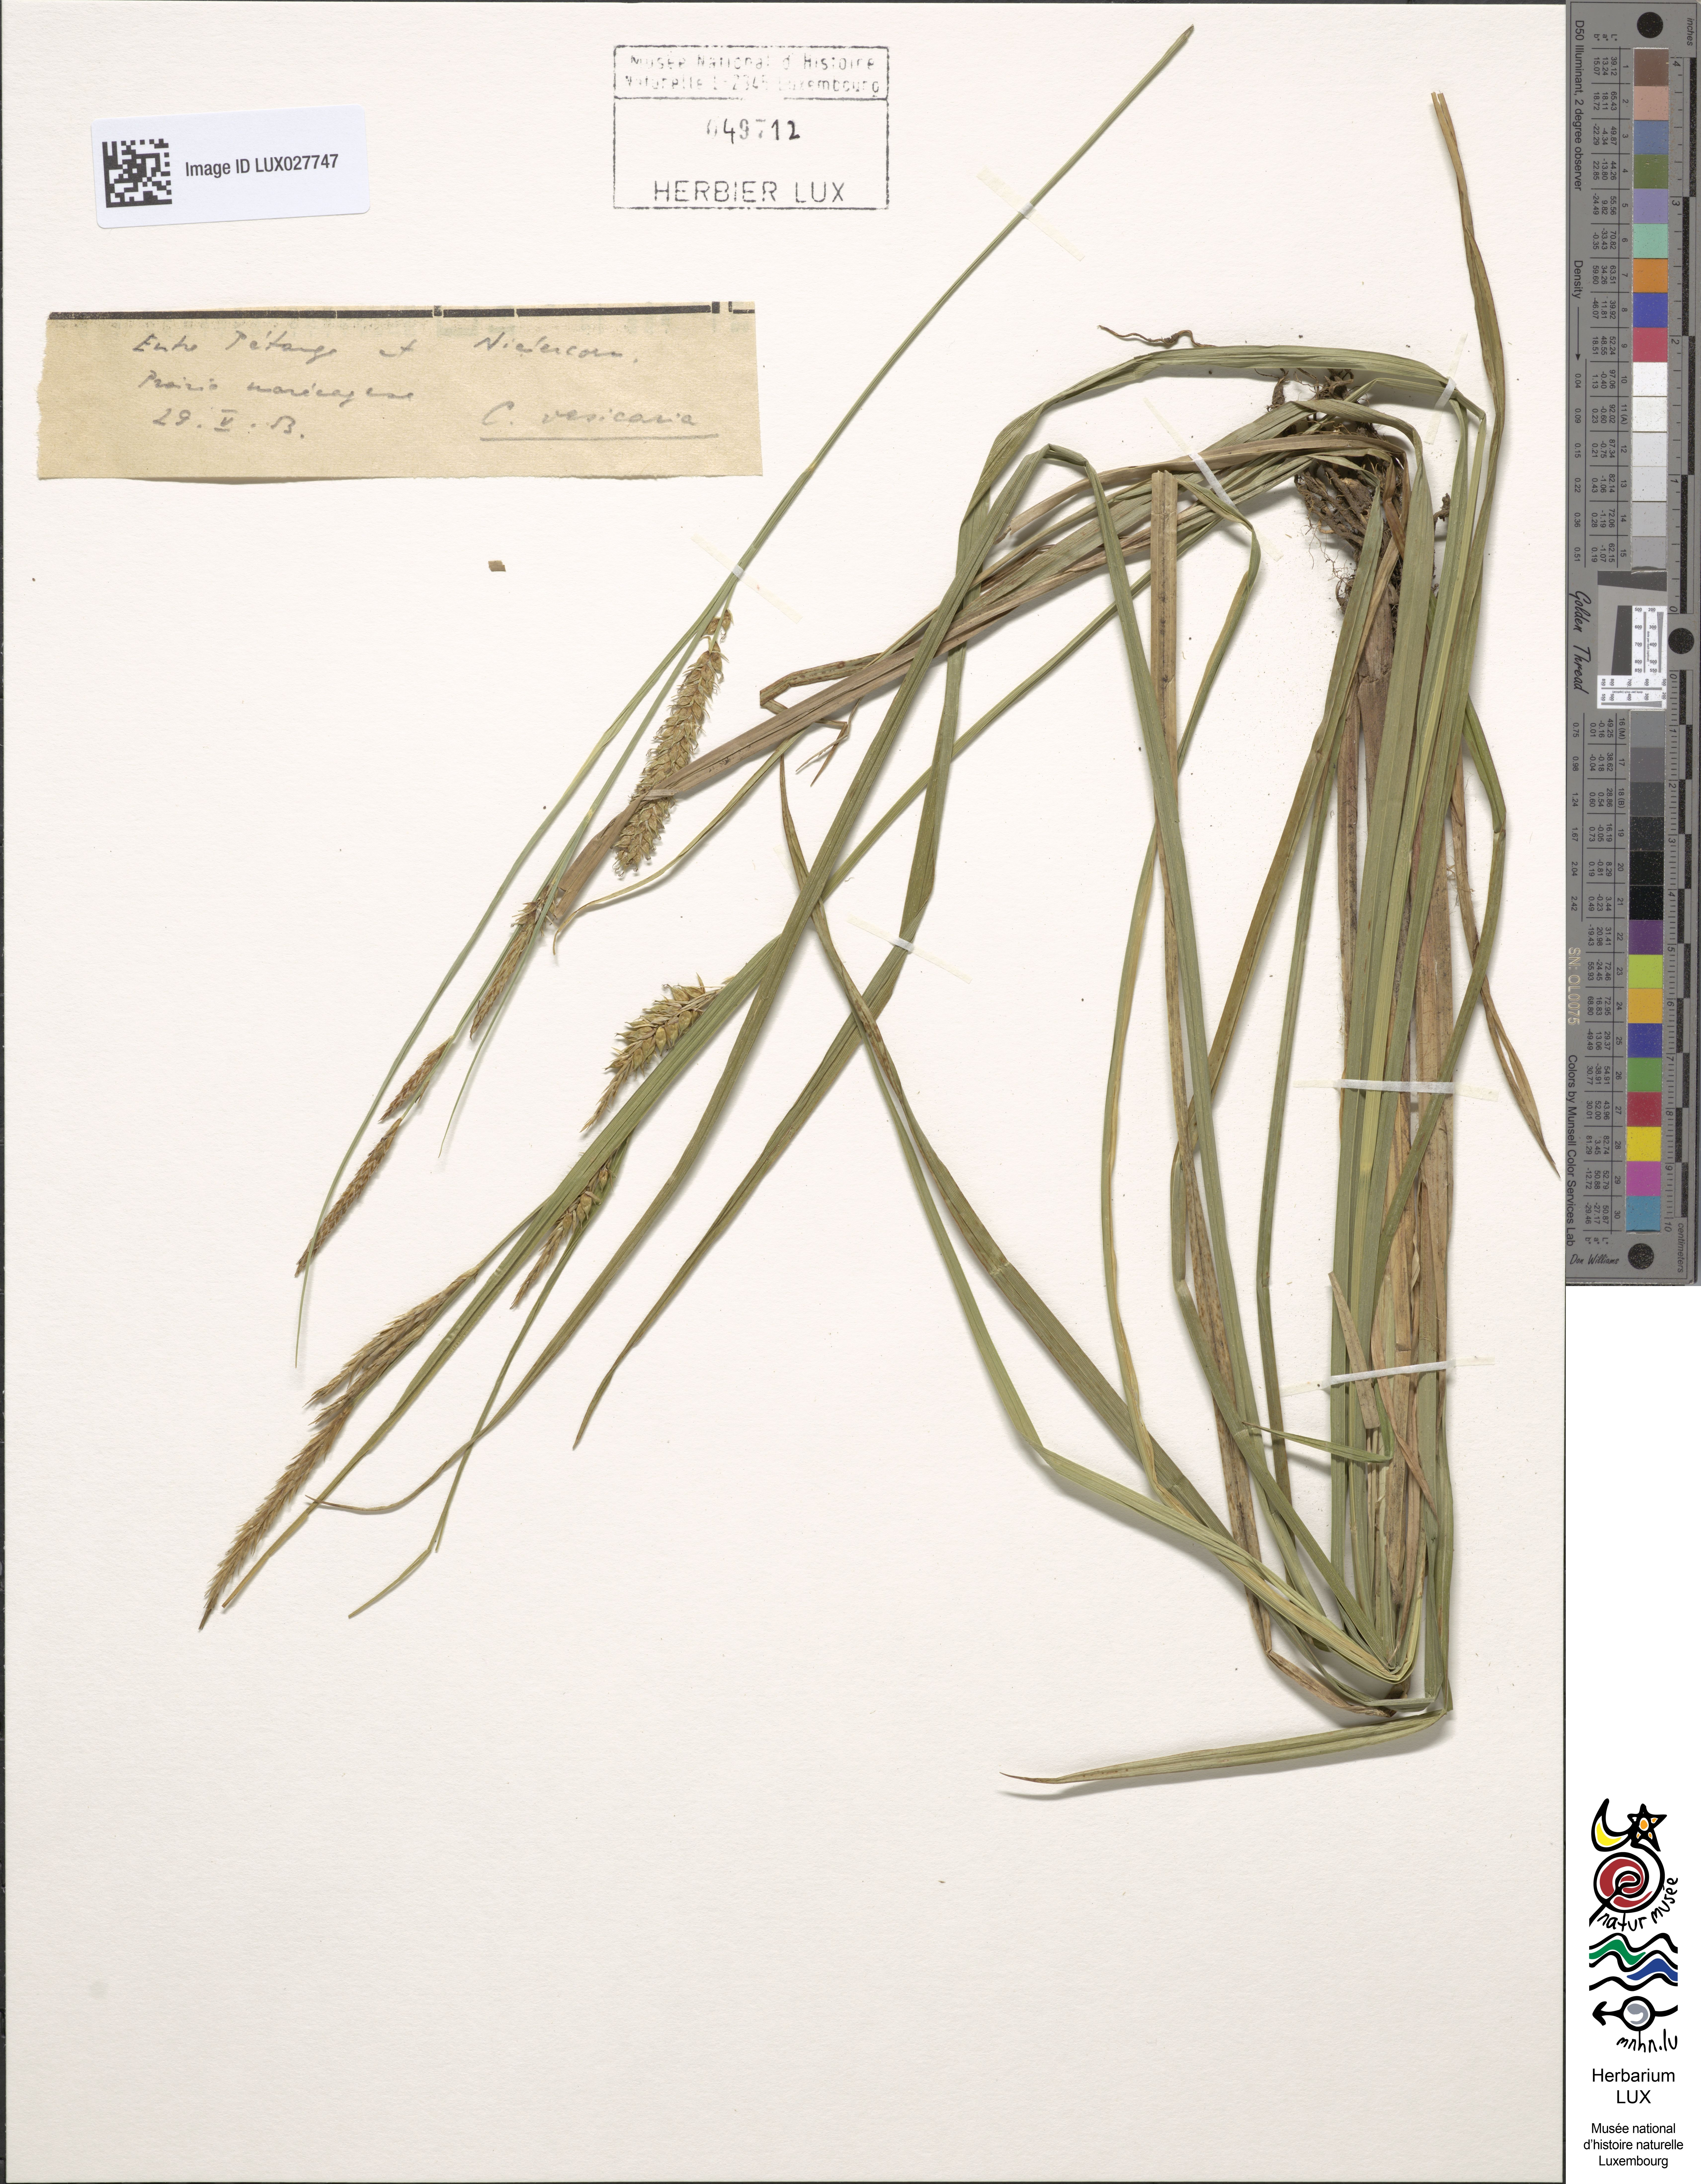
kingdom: Plantae
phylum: Tracheophyta
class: Liliopsida
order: Poales
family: Cyperaceae
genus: Carex
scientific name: Carex vesicaria
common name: Bladder-sedge
